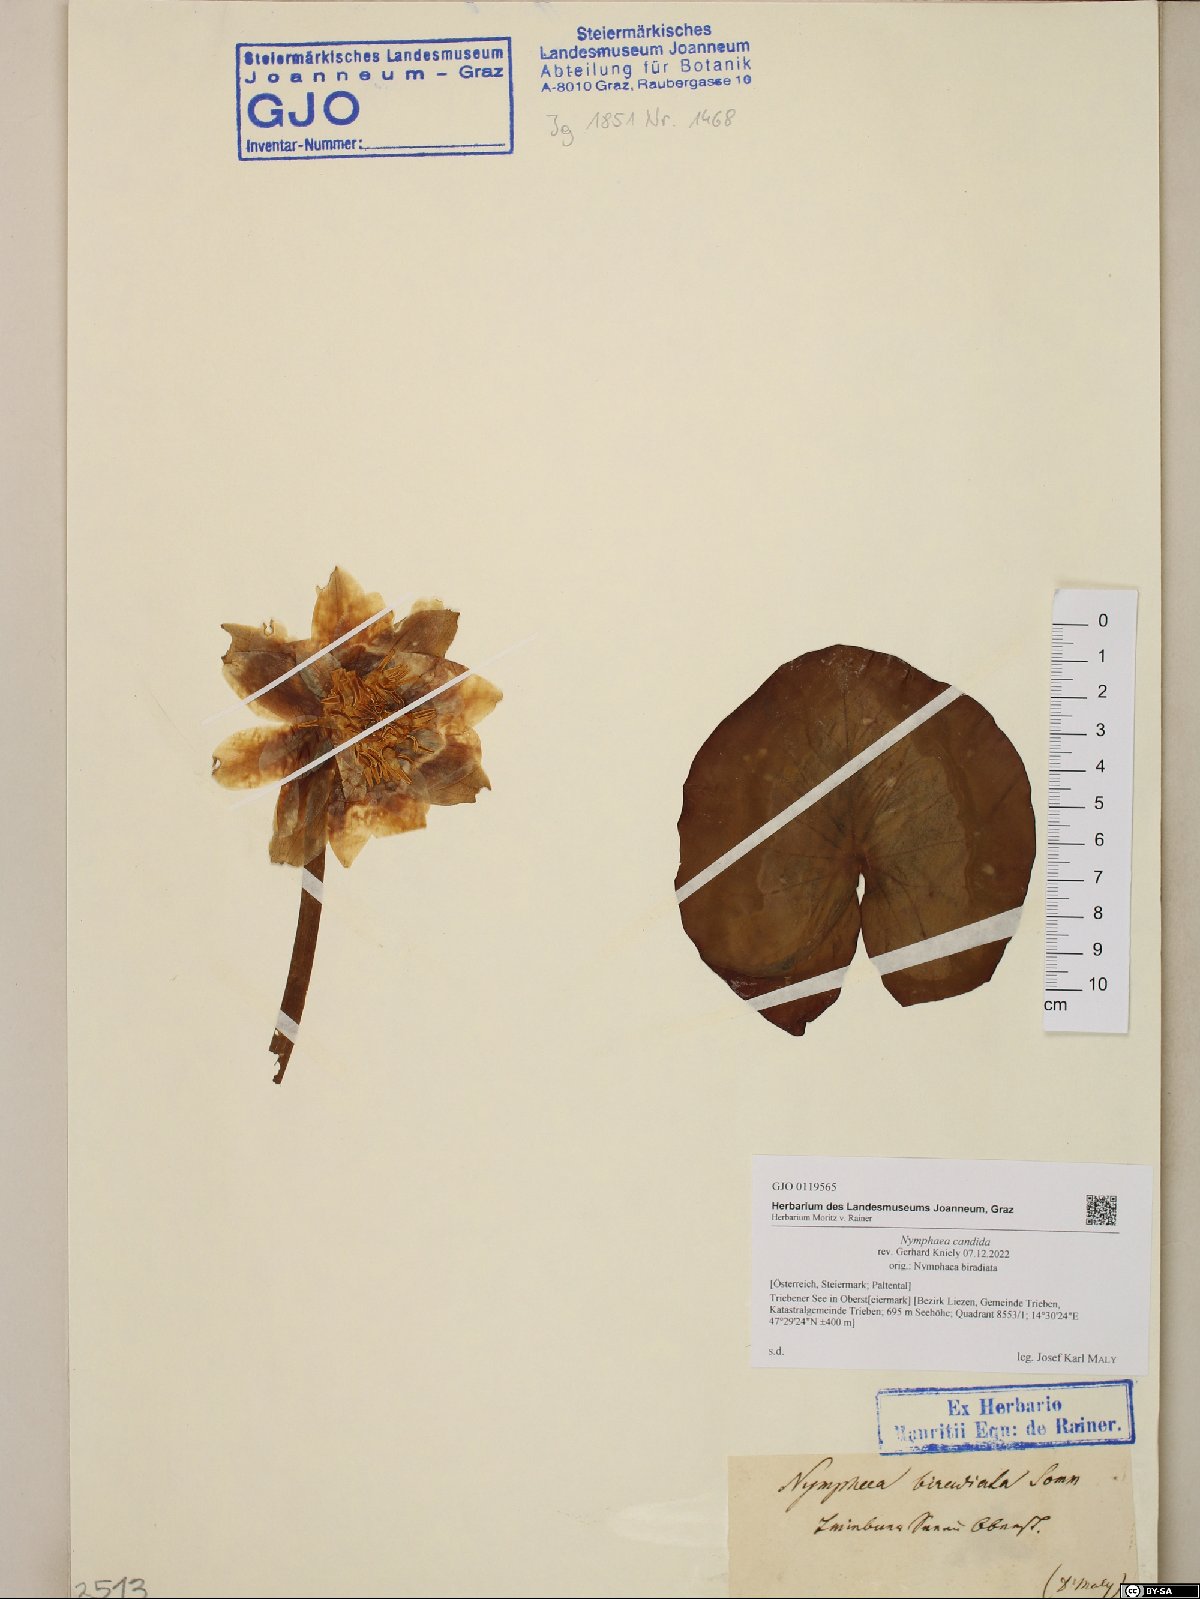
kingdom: Plantae
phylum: Tracheophyta
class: Magnoliopsida
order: Nymphaeales
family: Nymphaeaceae
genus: Nymphaea
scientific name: Nymphaea candida
